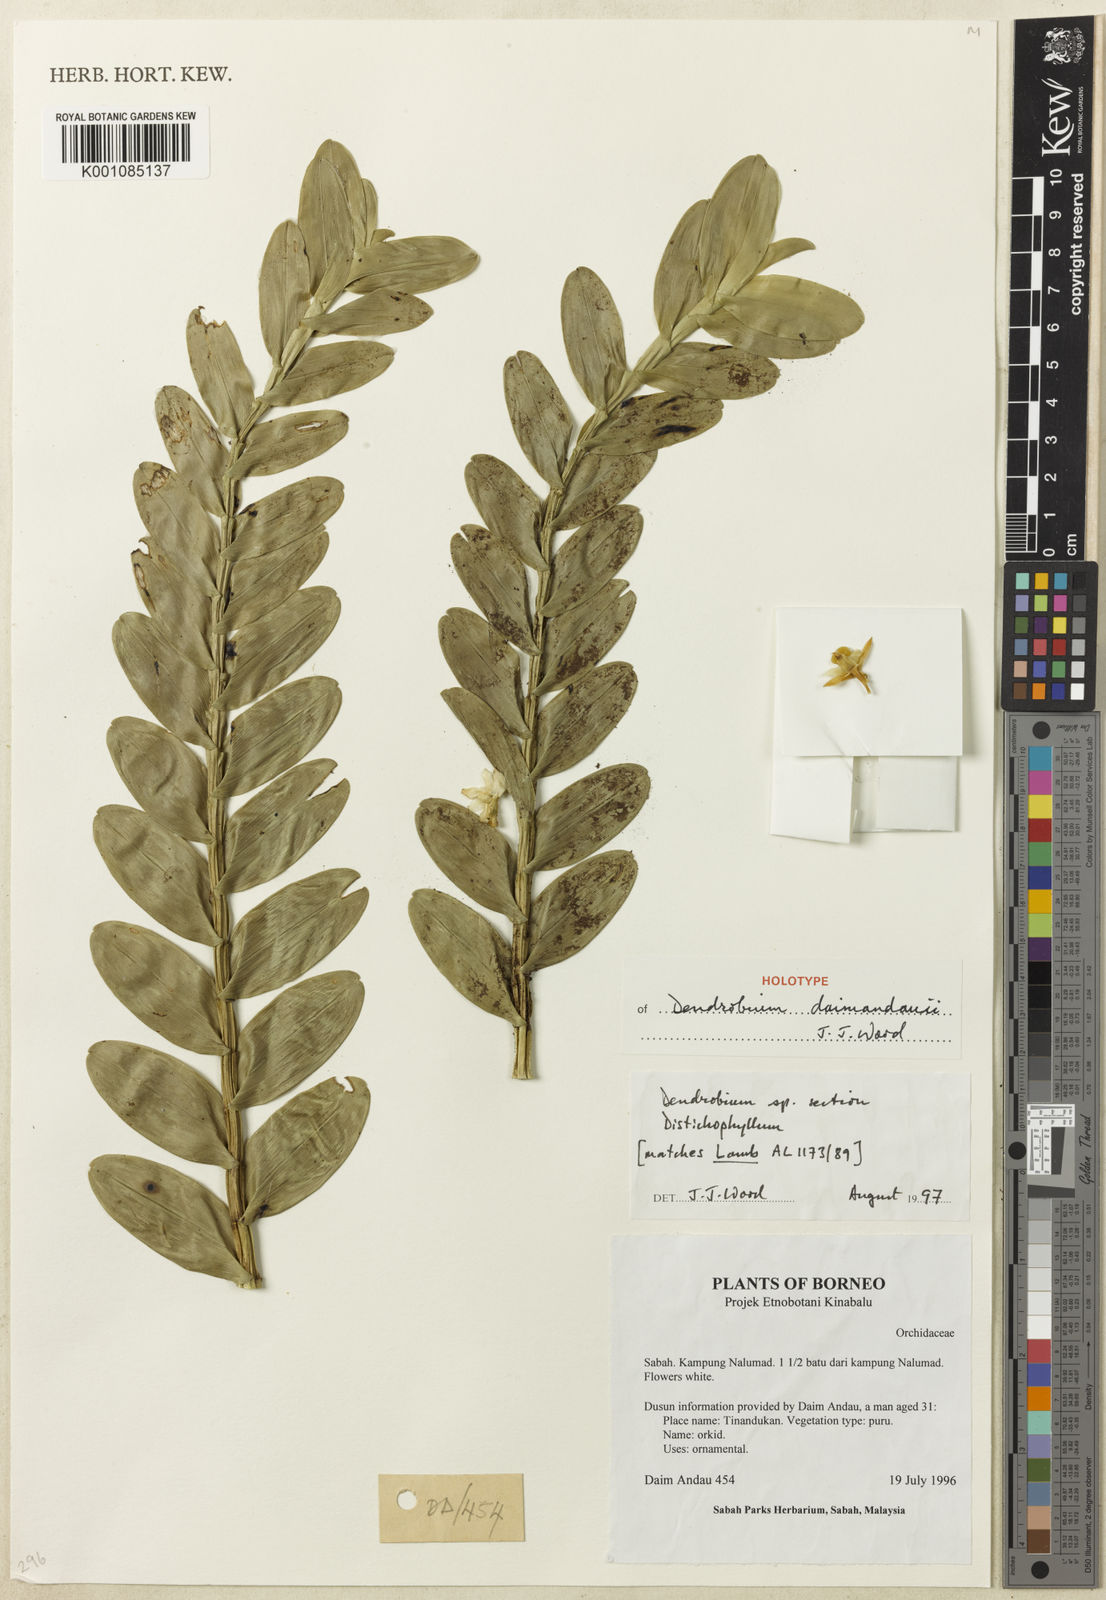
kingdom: Plantae
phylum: Tracheophyta
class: Liliopsida
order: Asparagales
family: Orchidaceae
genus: Dendrobium
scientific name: Dendrobium daimandaui
